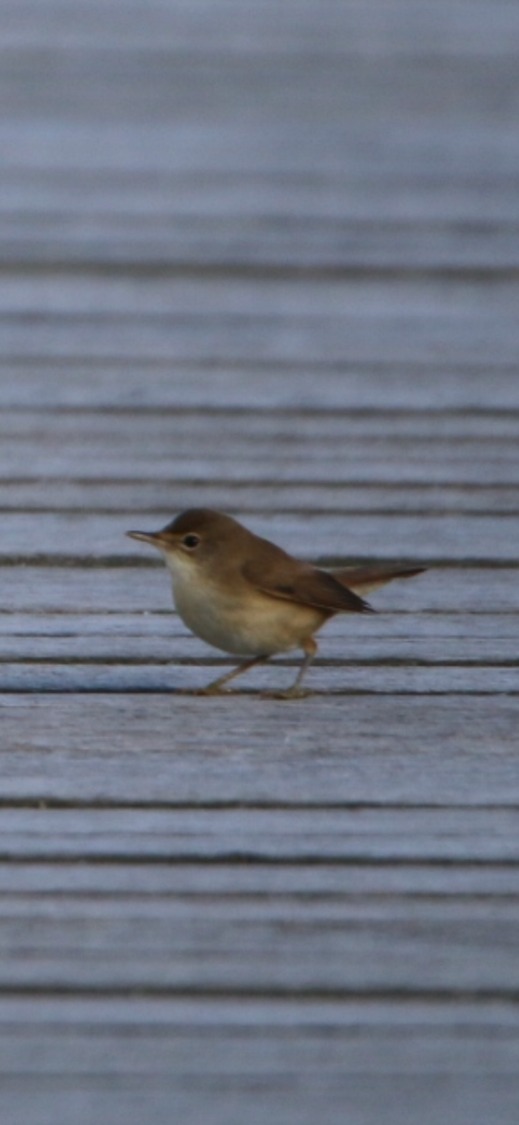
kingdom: Animalia
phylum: Chordata
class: Aves
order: Passeriformes
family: Acrocephalidae
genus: Acrocephalus
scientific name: Acrocephalus scirpaceus
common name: Rørsanger
